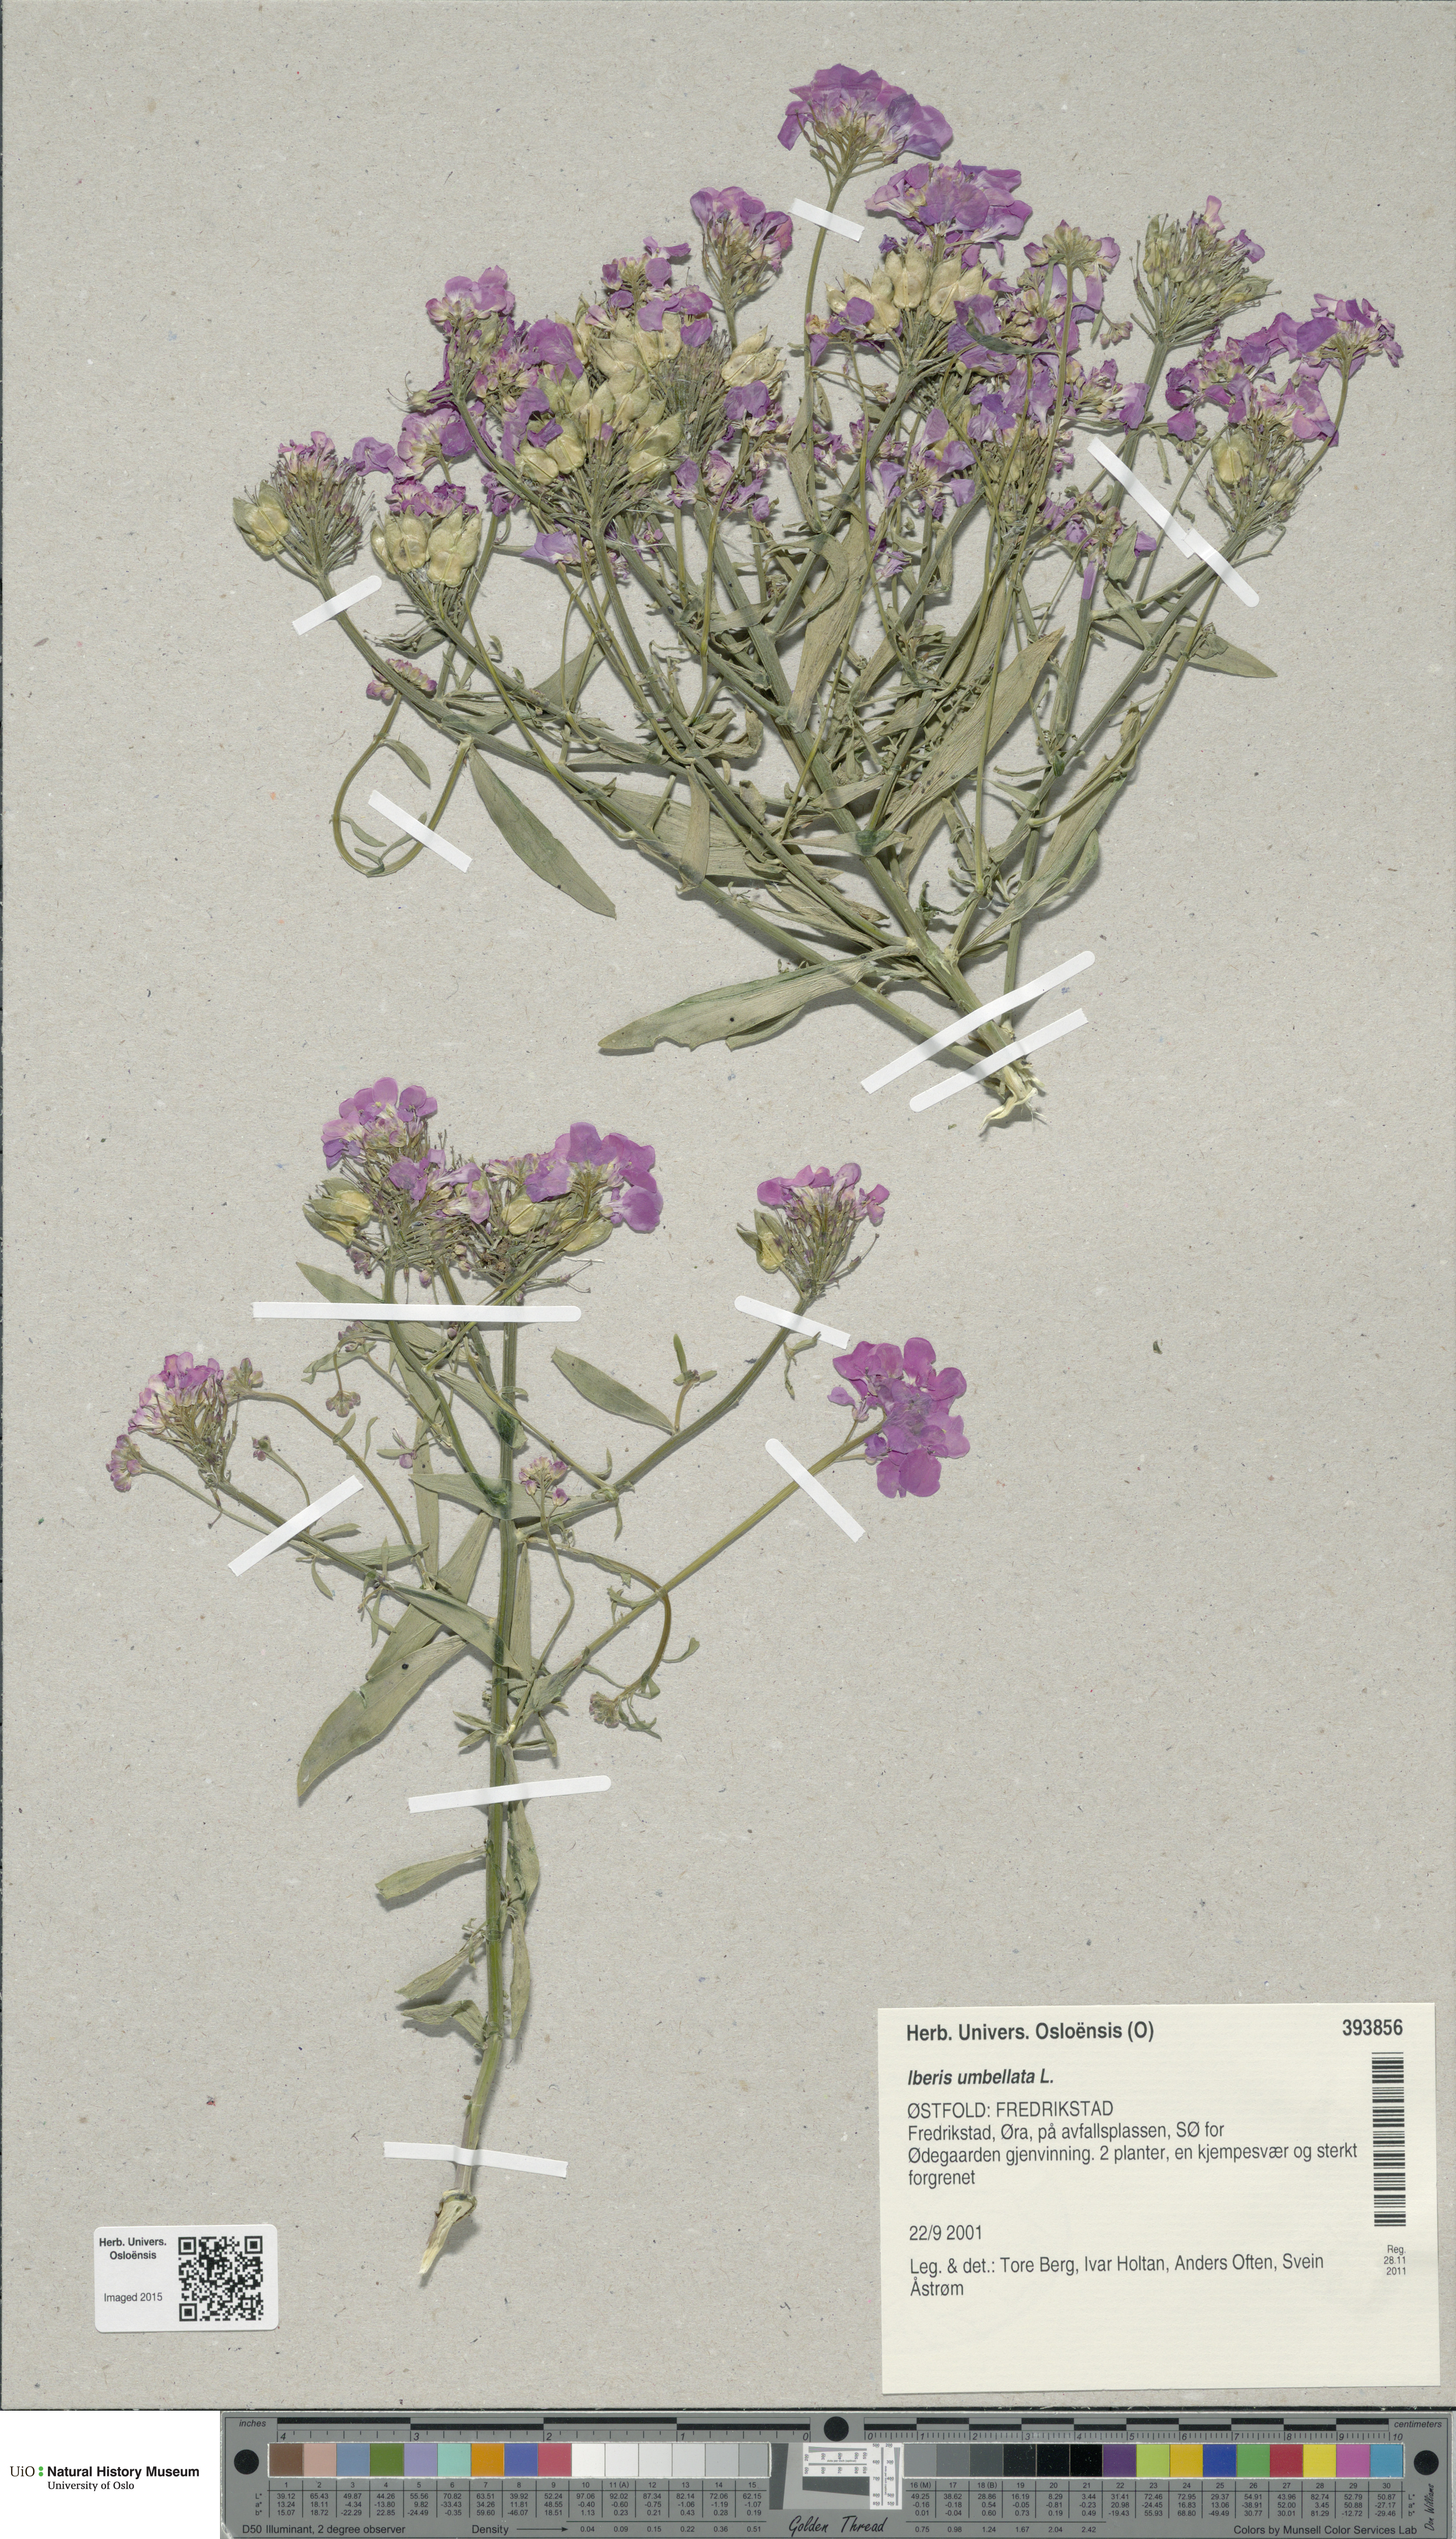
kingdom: Plantae
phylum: Tracheophyta
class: Magnoliopsida
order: Brassicales
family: Brassicaceae
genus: Iberis
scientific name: Iberis umbellata
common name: Globe candytuft
